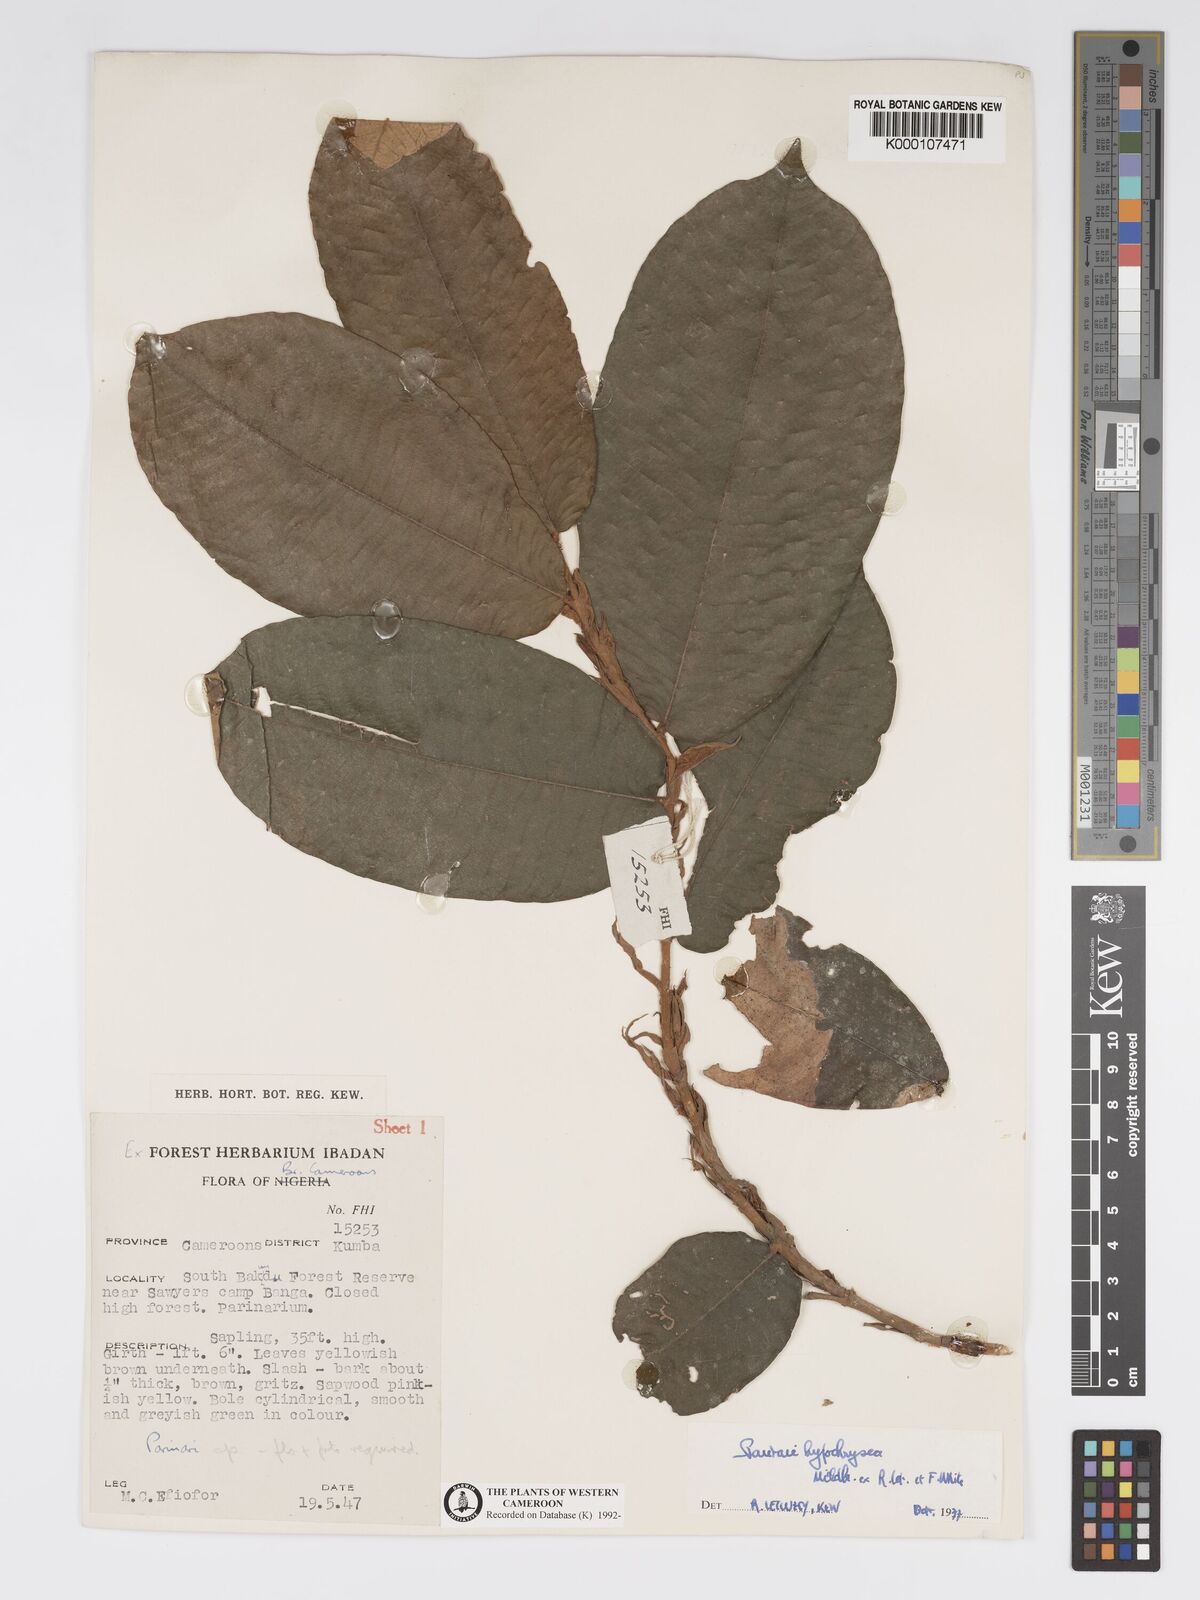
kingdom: Plantae
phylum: Tracheophyta
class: Magnoliopsida
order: Malpighiales
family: Chrysobalanaceae
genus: Parinari
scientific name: Parinari hypochrysea
